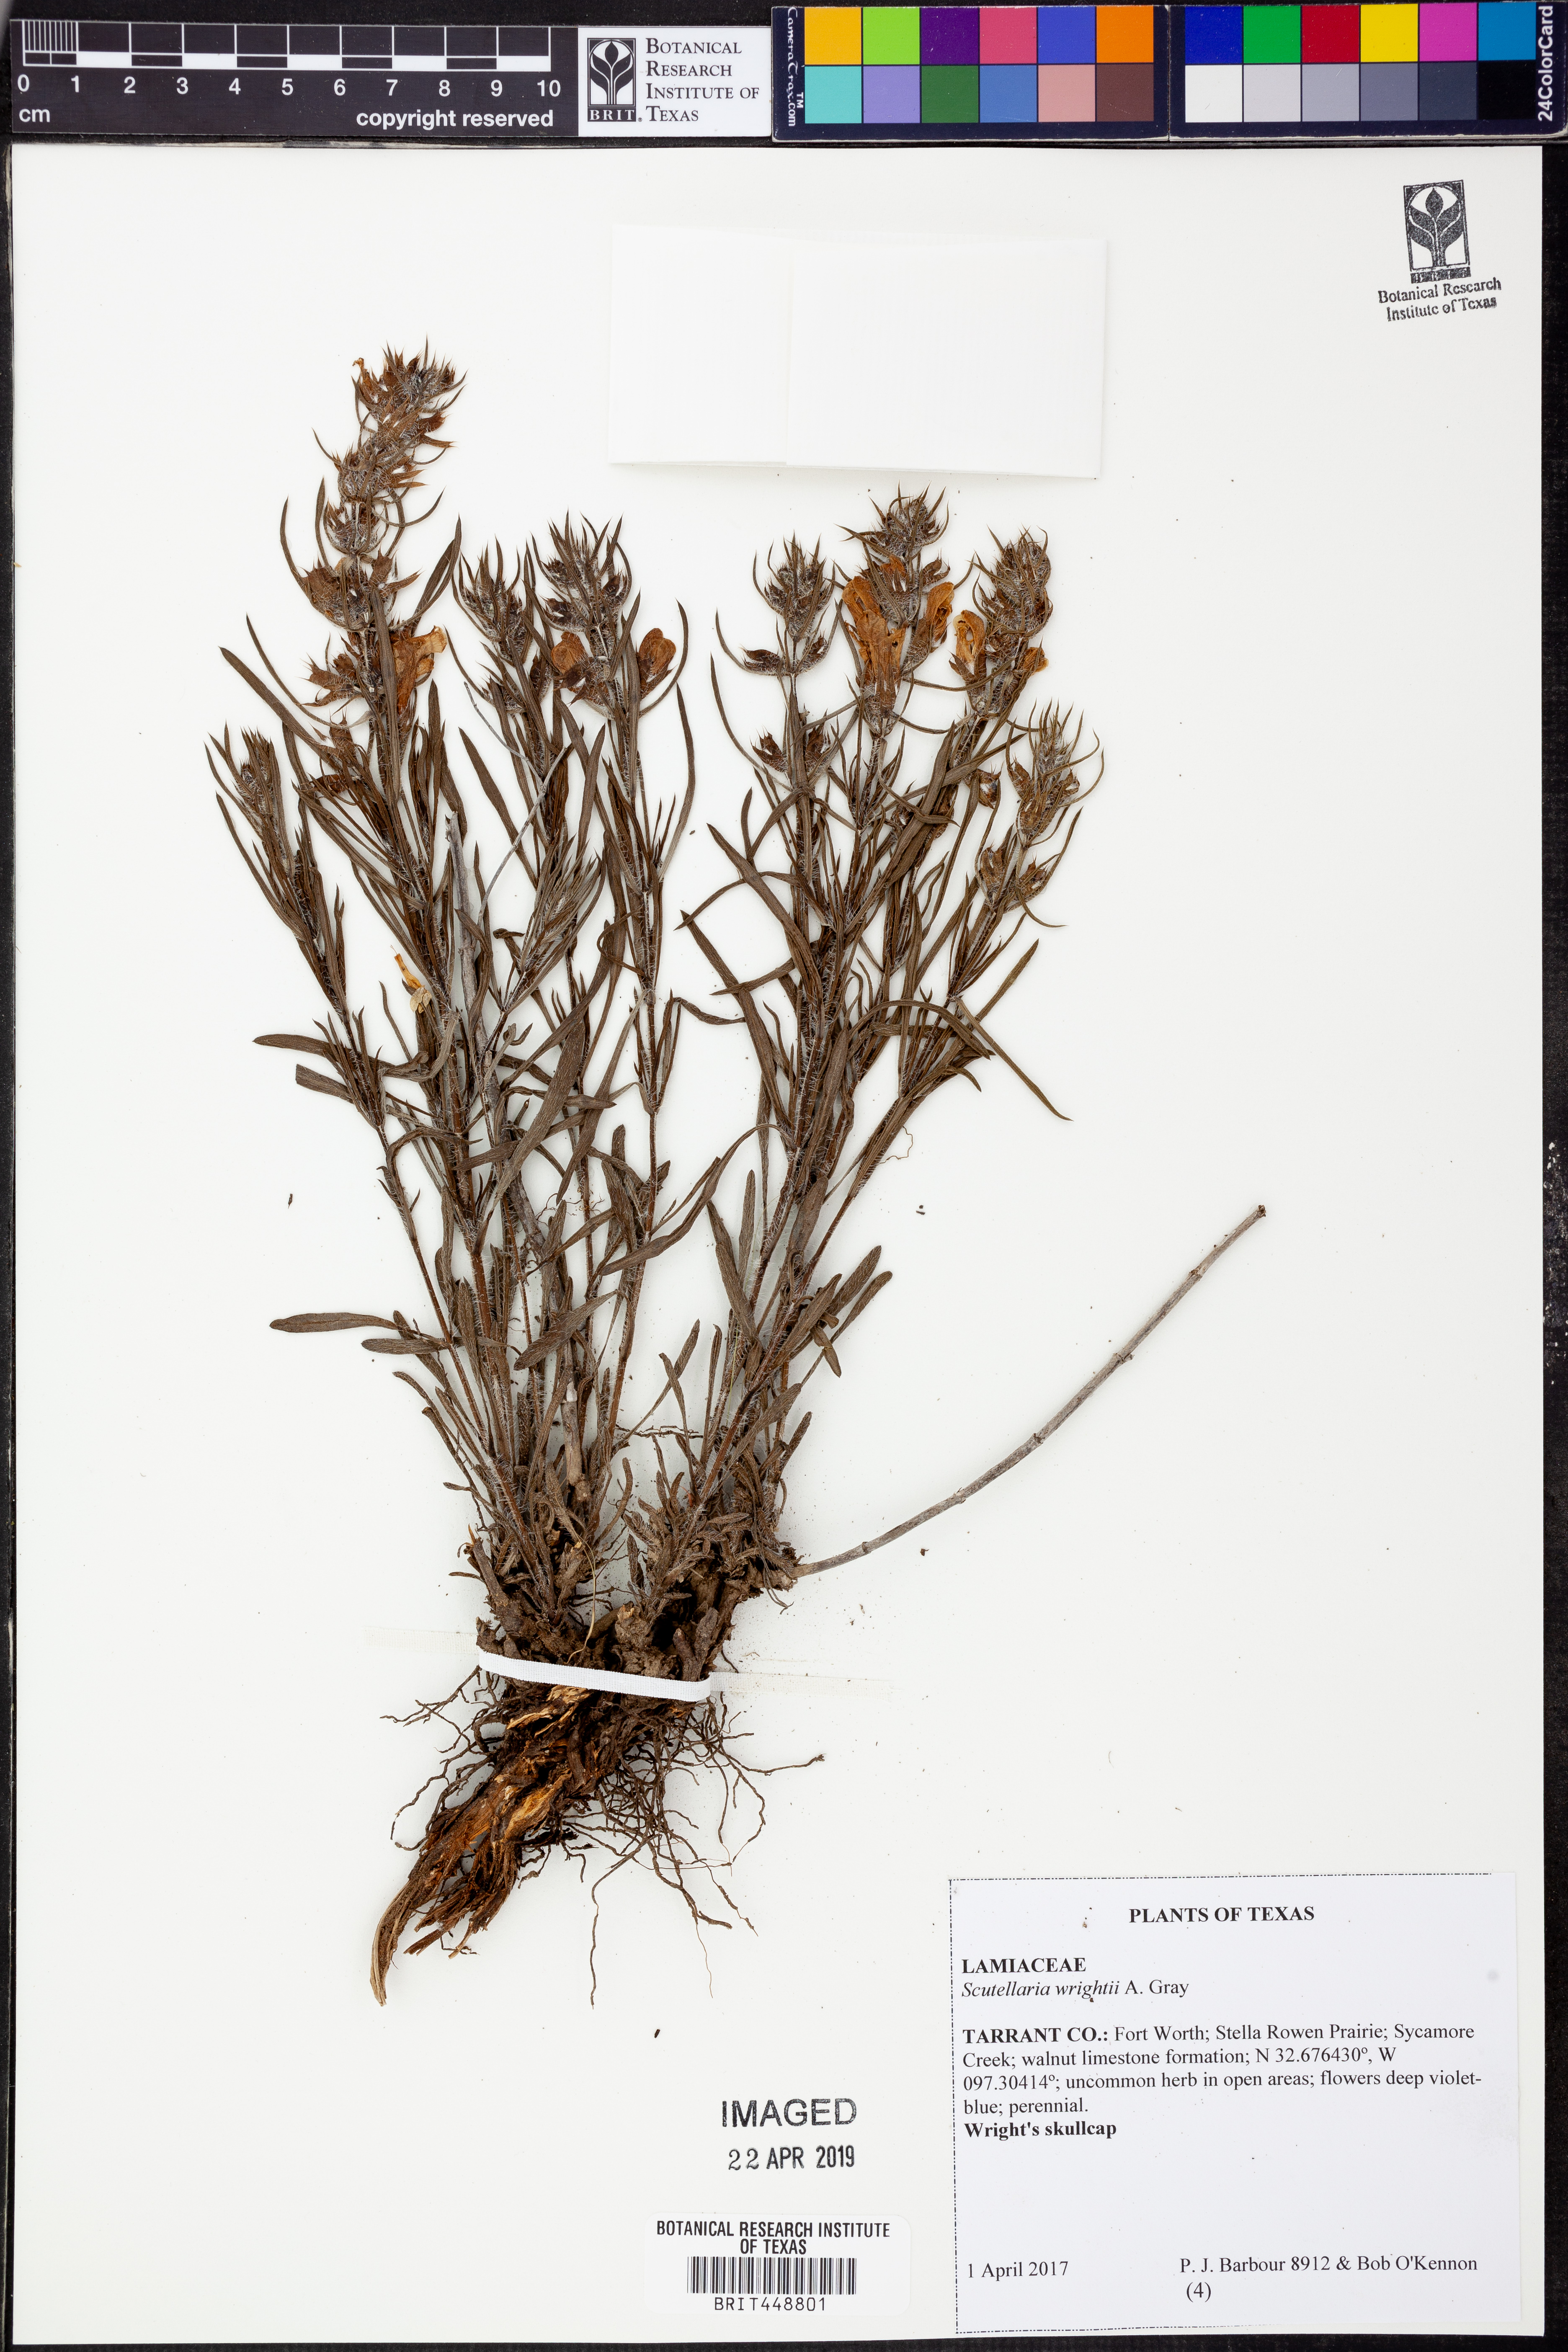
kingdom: Plantae
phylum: Tracheophyta
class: Magnoliopsida
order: Lamiales
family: Lamiaceae
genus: Scutellaria
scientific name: Scutellaria wrightii
